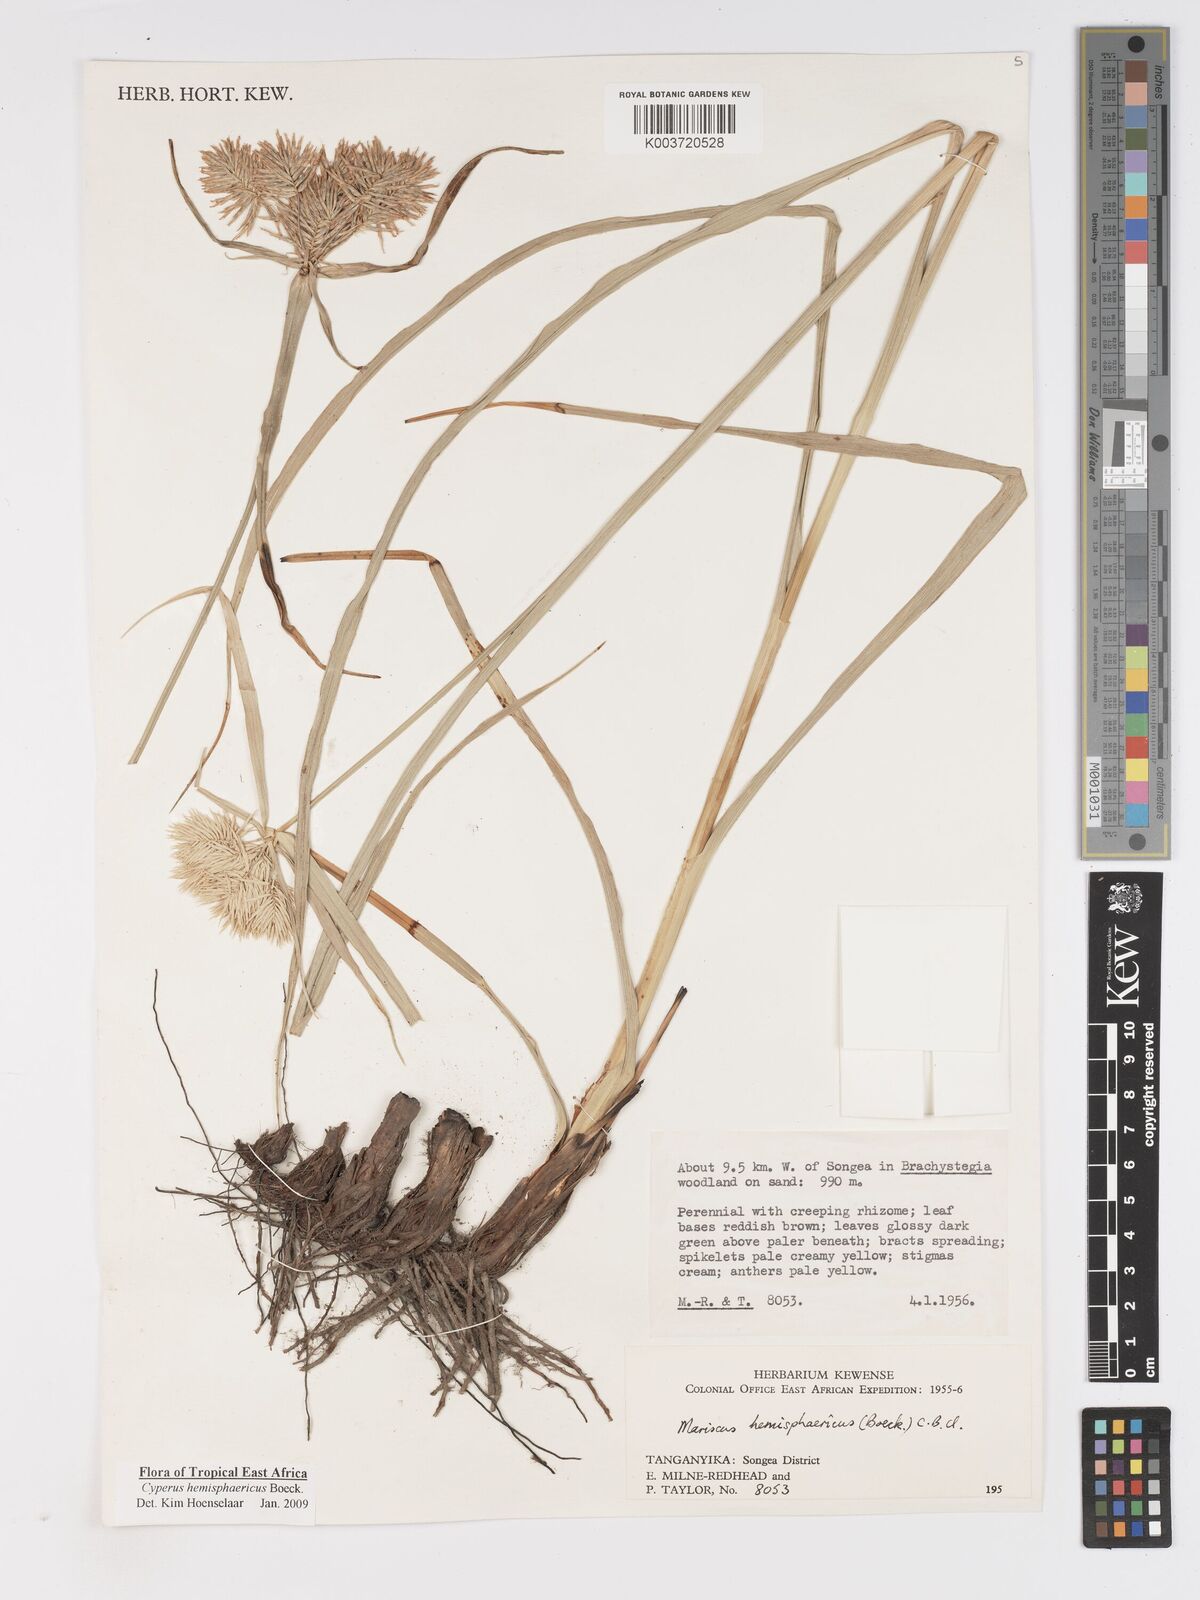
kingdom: Plantae
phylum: Tracheophyta
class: Liliopsida
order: Poales
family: Cyperaceae
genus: Cyperus
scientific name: Cyperus hemisphaericus
